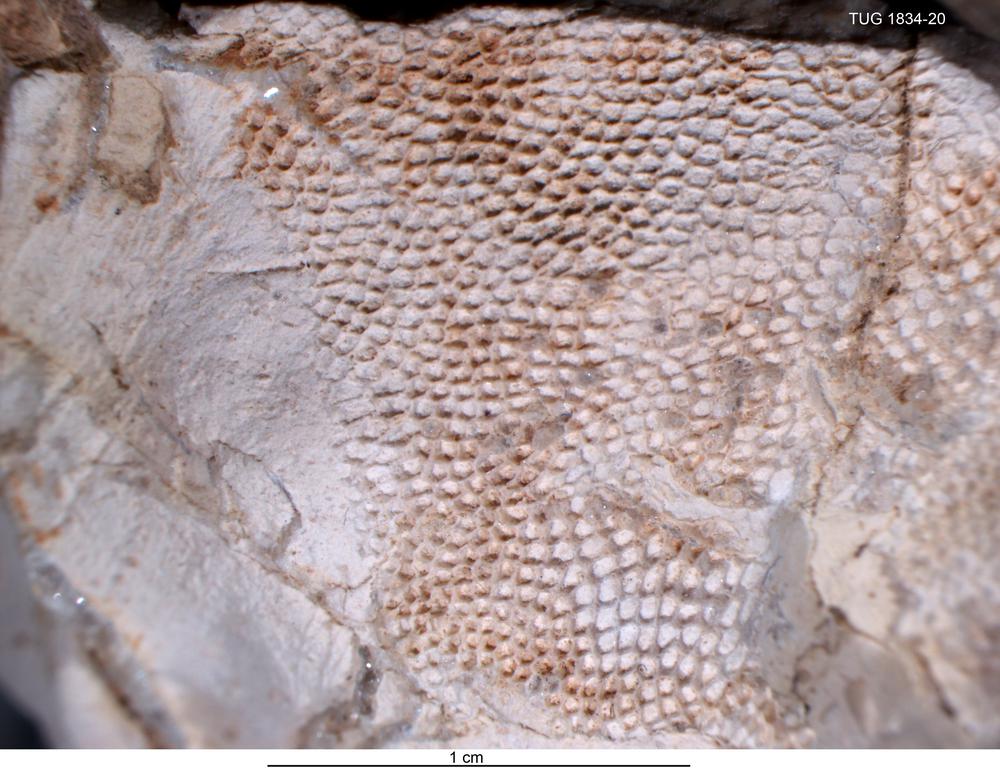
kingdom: Animalia
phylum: Cnidaria
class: Anthozoa
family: Favositidae
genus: Paleofavosites
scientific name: Paleofavosites
